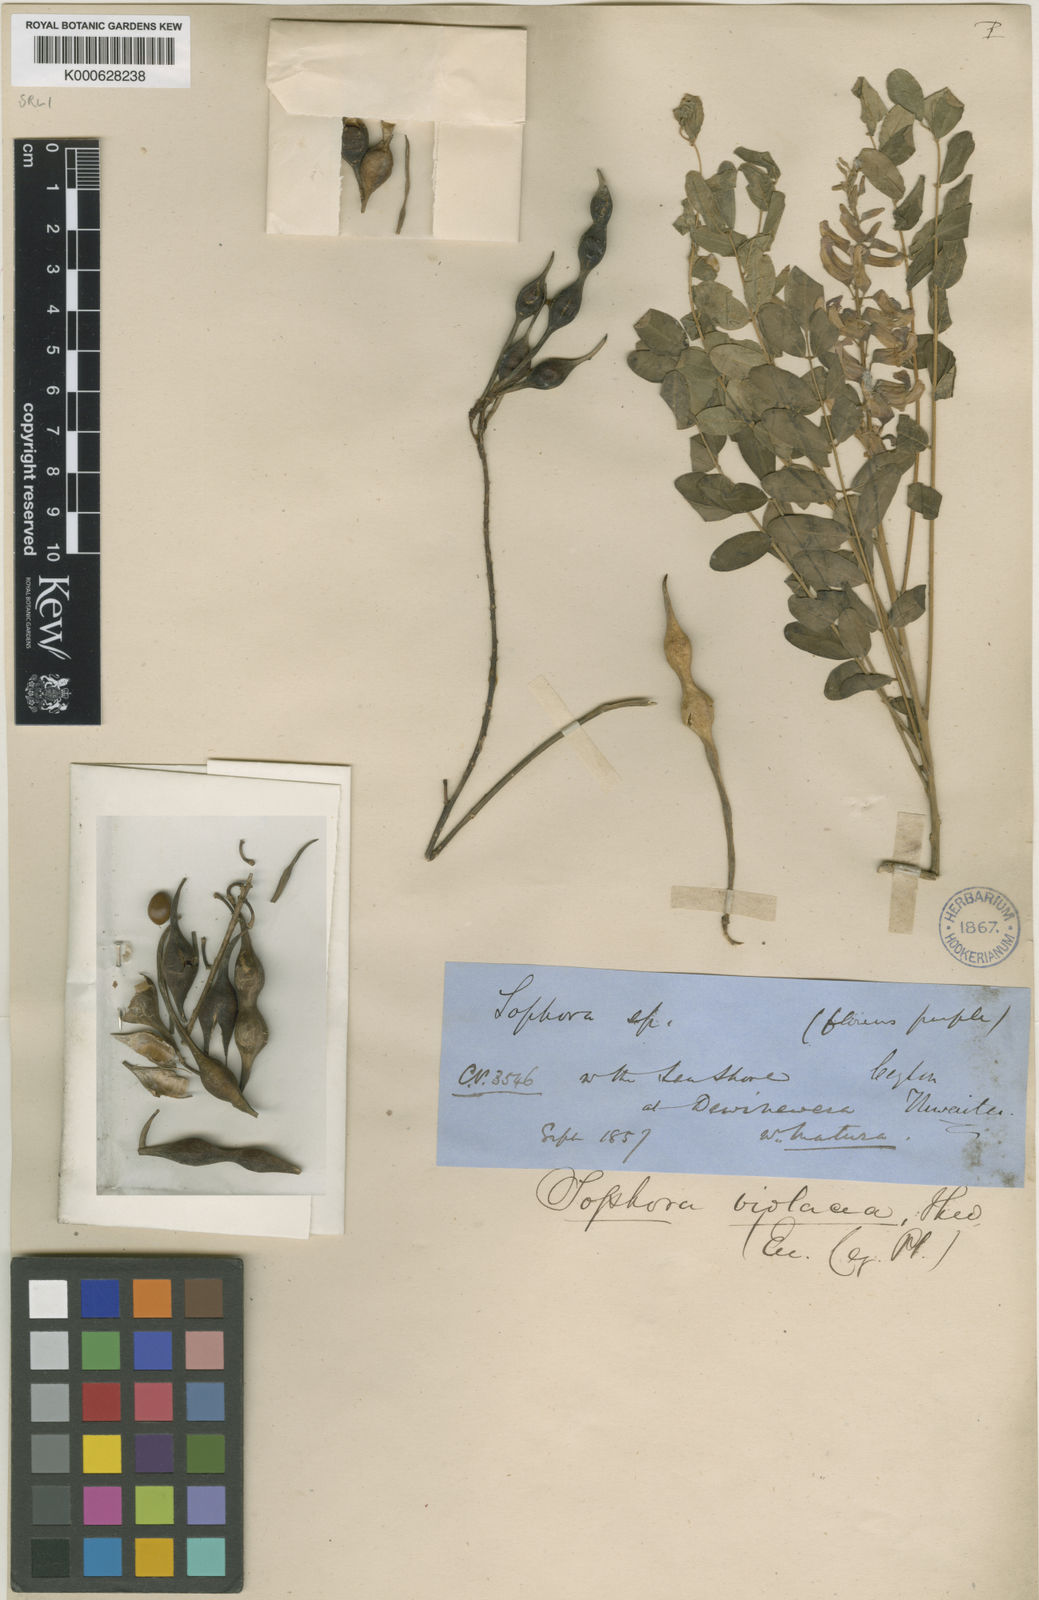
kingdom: Plantae
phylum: Tracheophyta
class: Magnoliopsida
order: Fabales
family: Fabaceae
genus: Sophora
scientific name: Sophora violacea
